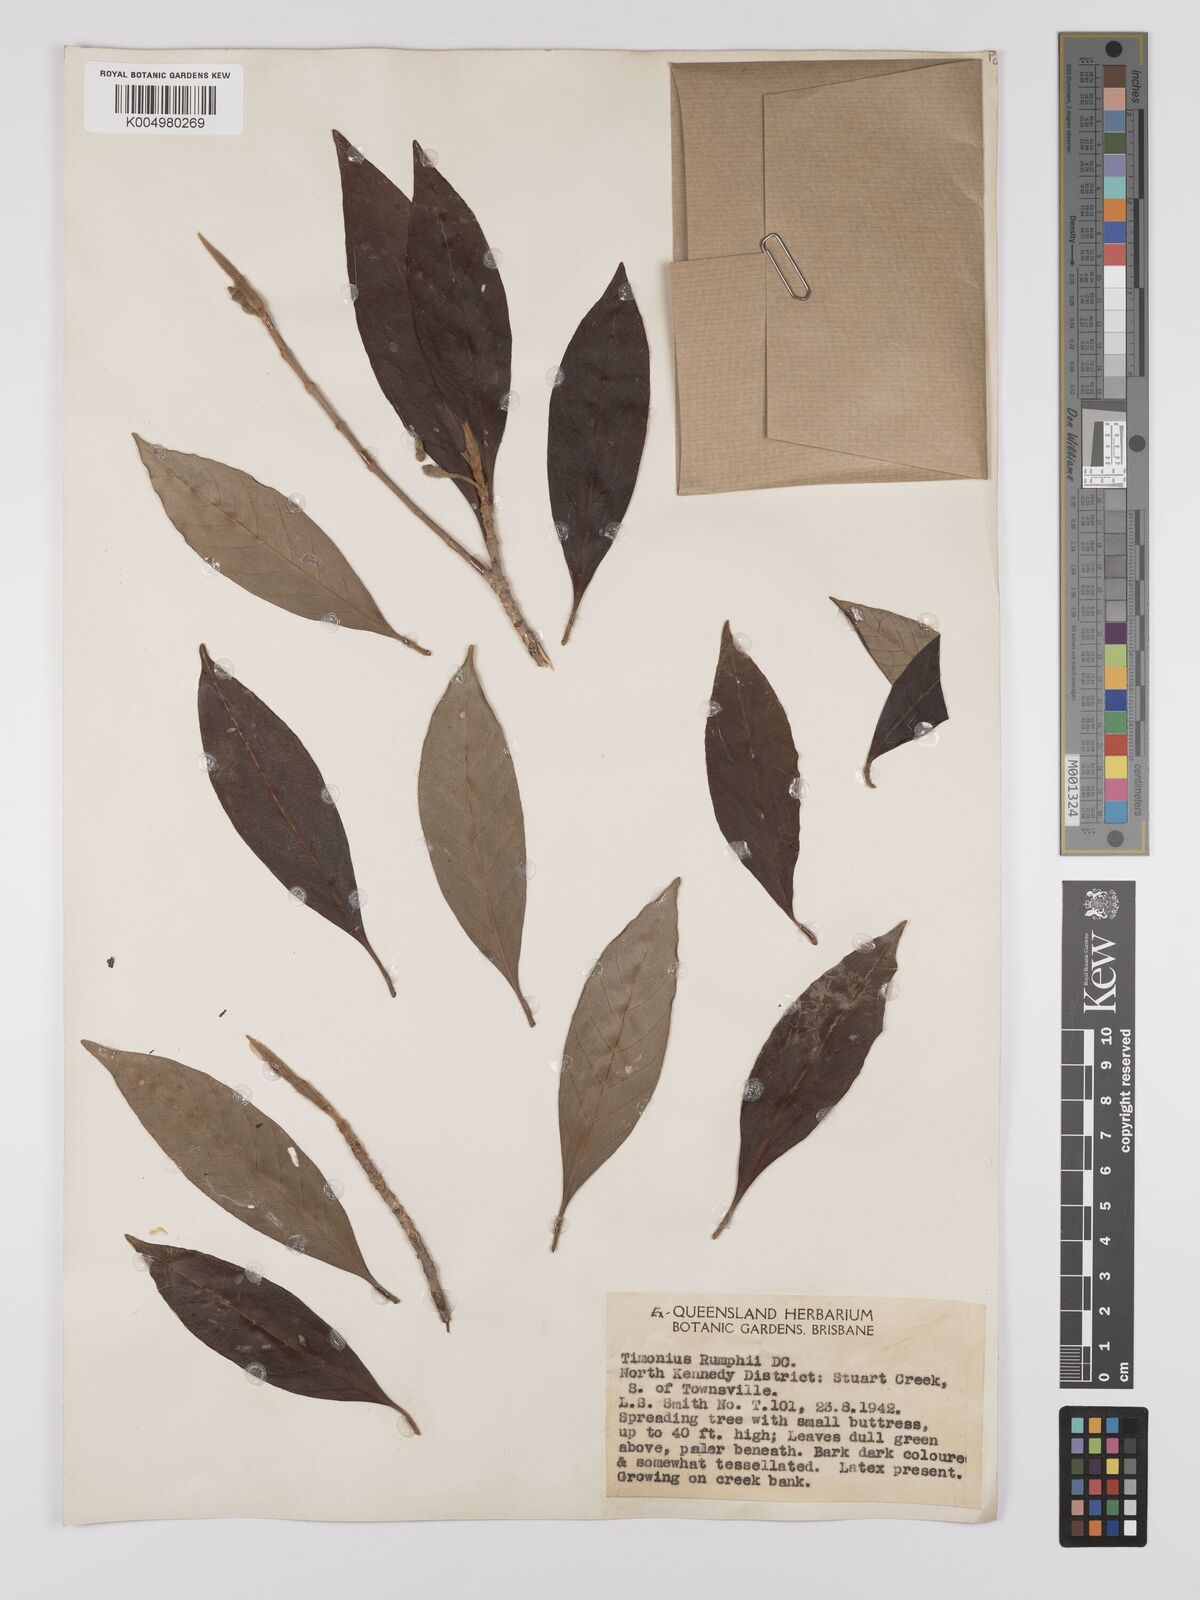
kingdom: Plantae
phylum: Tracheophyta
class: Magnoliopsida
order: Gentianales
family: Rubiaceae
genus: Timonius
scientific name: Timonius timon
